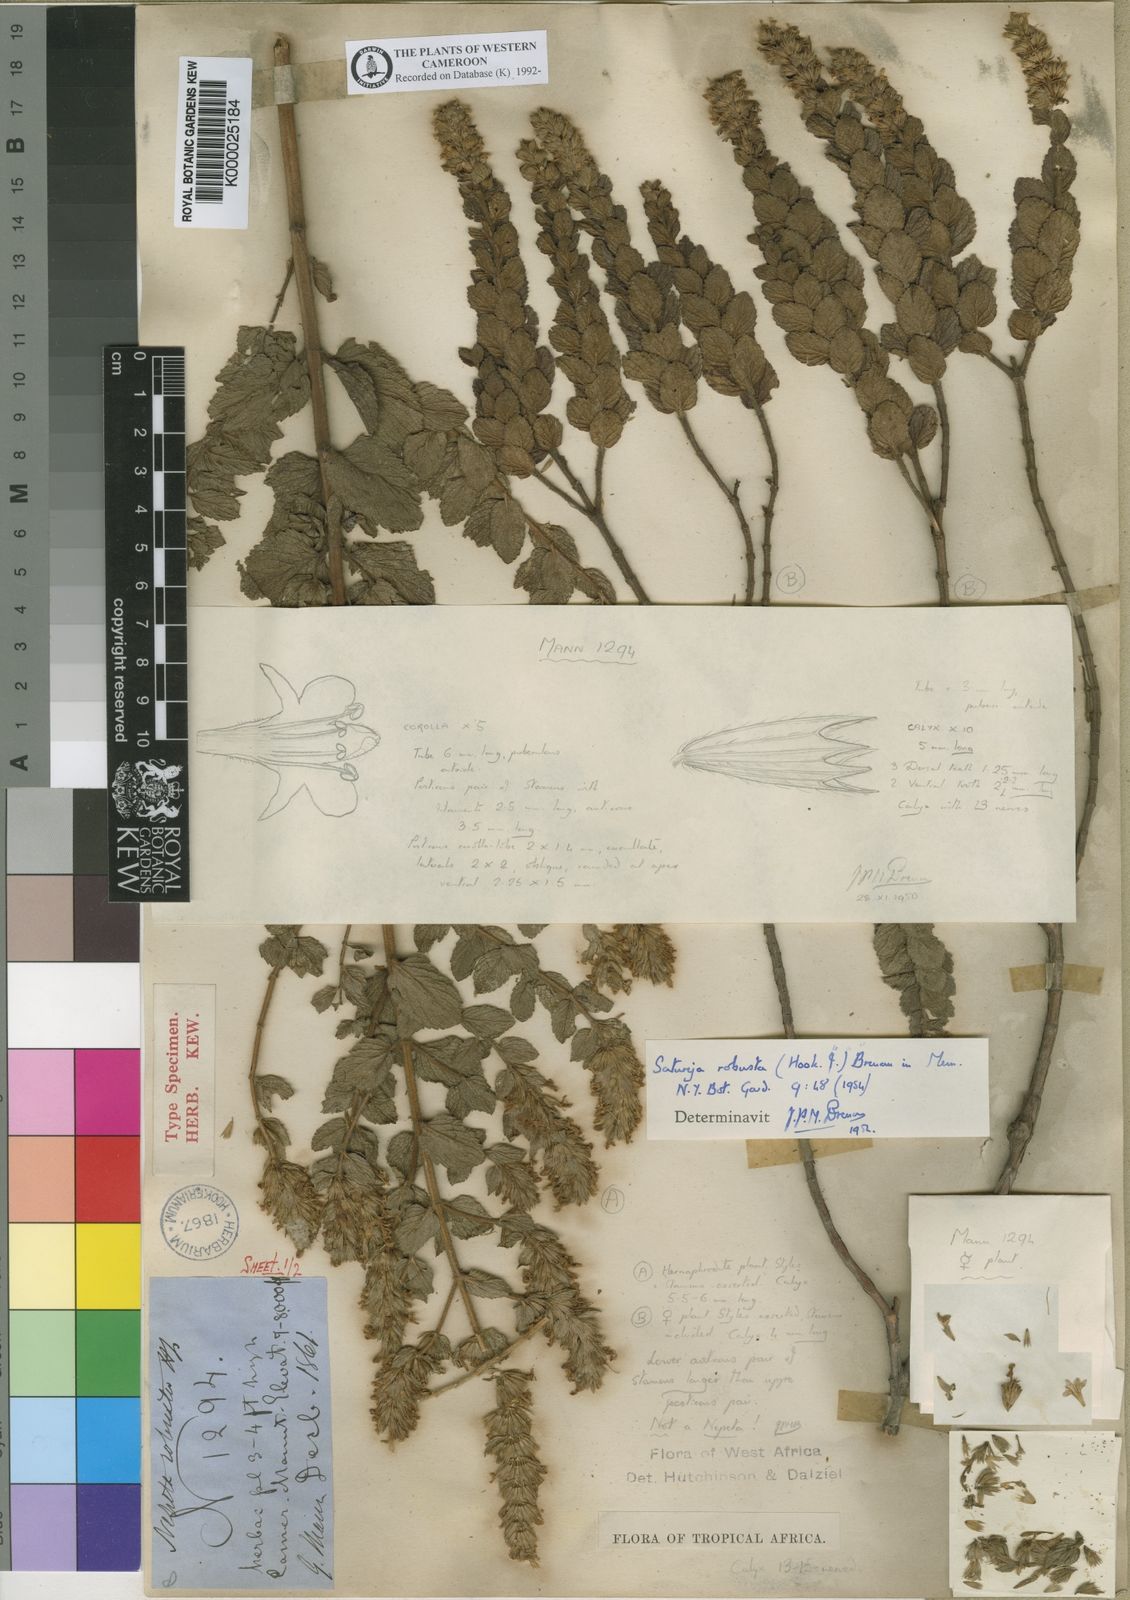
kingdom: Plantae
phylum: Tracheophyta
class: Magnoliopsida
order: Lamiales
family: Lamiaceae
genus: Clinopodium
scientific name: Clinopodium robustum
